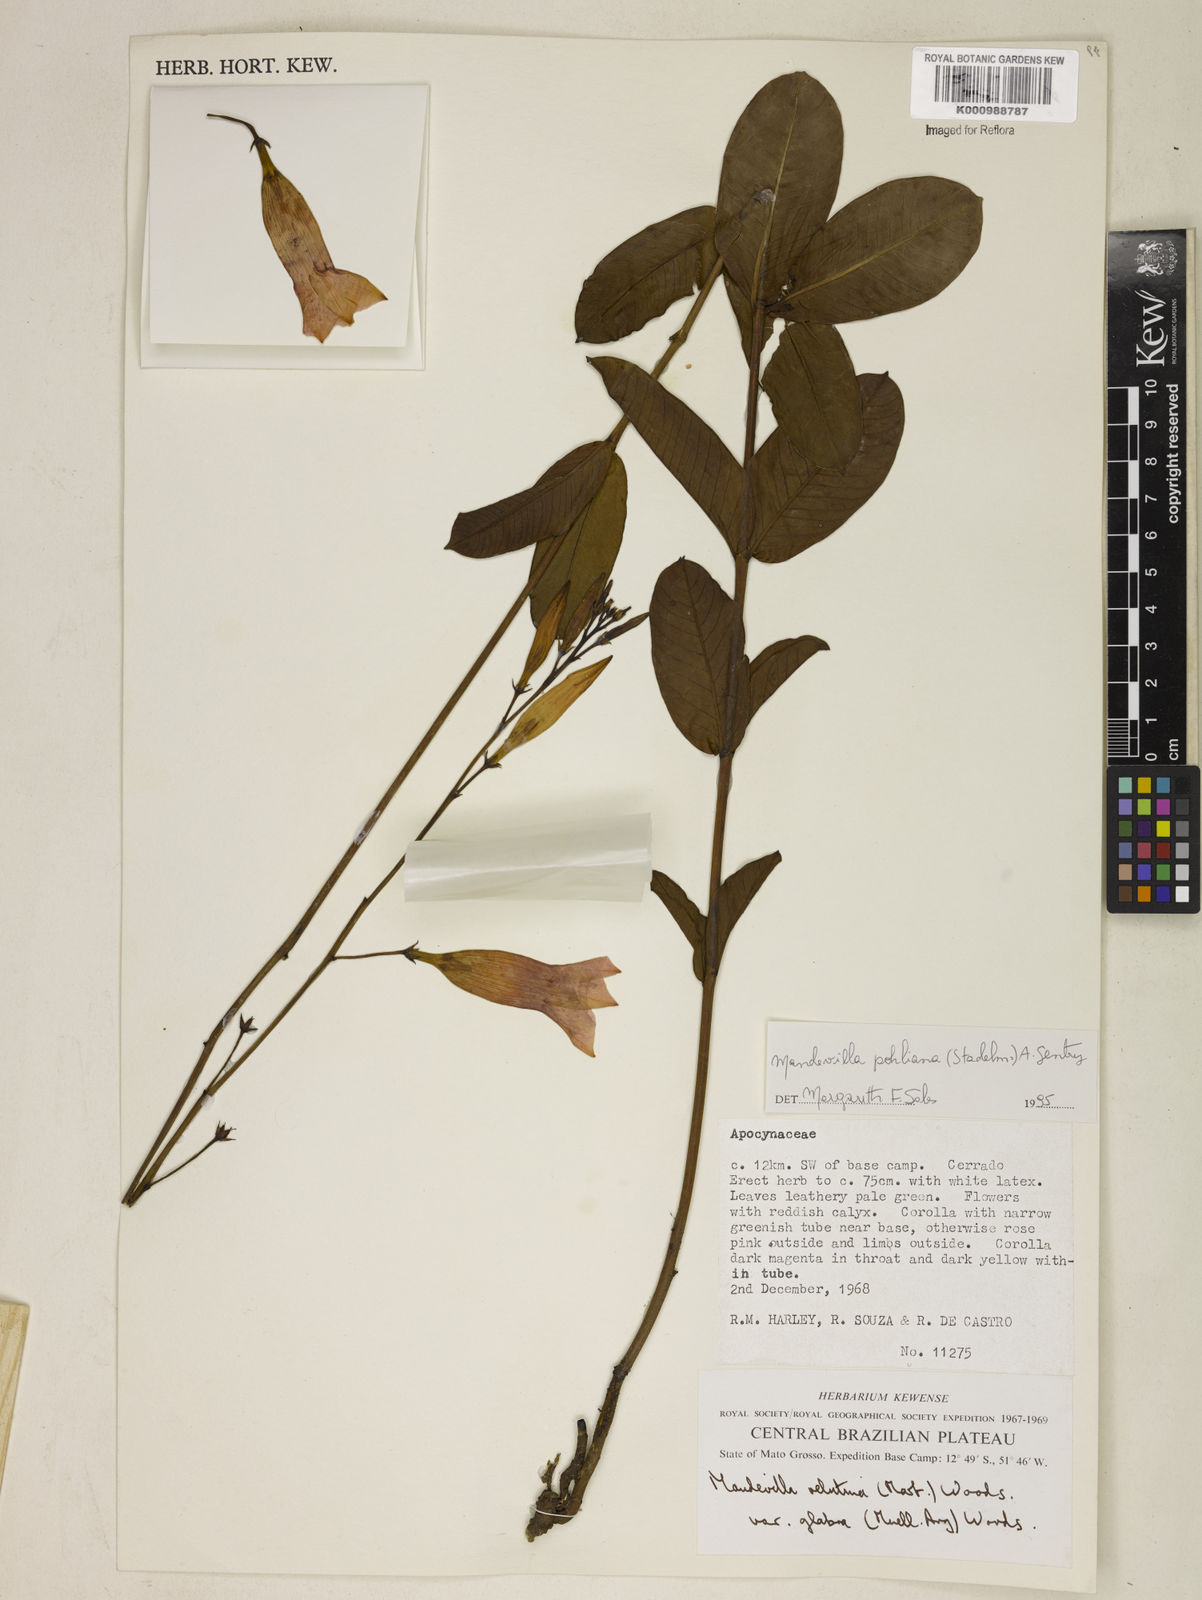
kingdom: Plantae
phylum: Tracheophyta
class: Magnoliopsida
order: Gentianales
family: Apocynaceae
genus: Mandevilla
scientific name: Mandevilla pohliana
